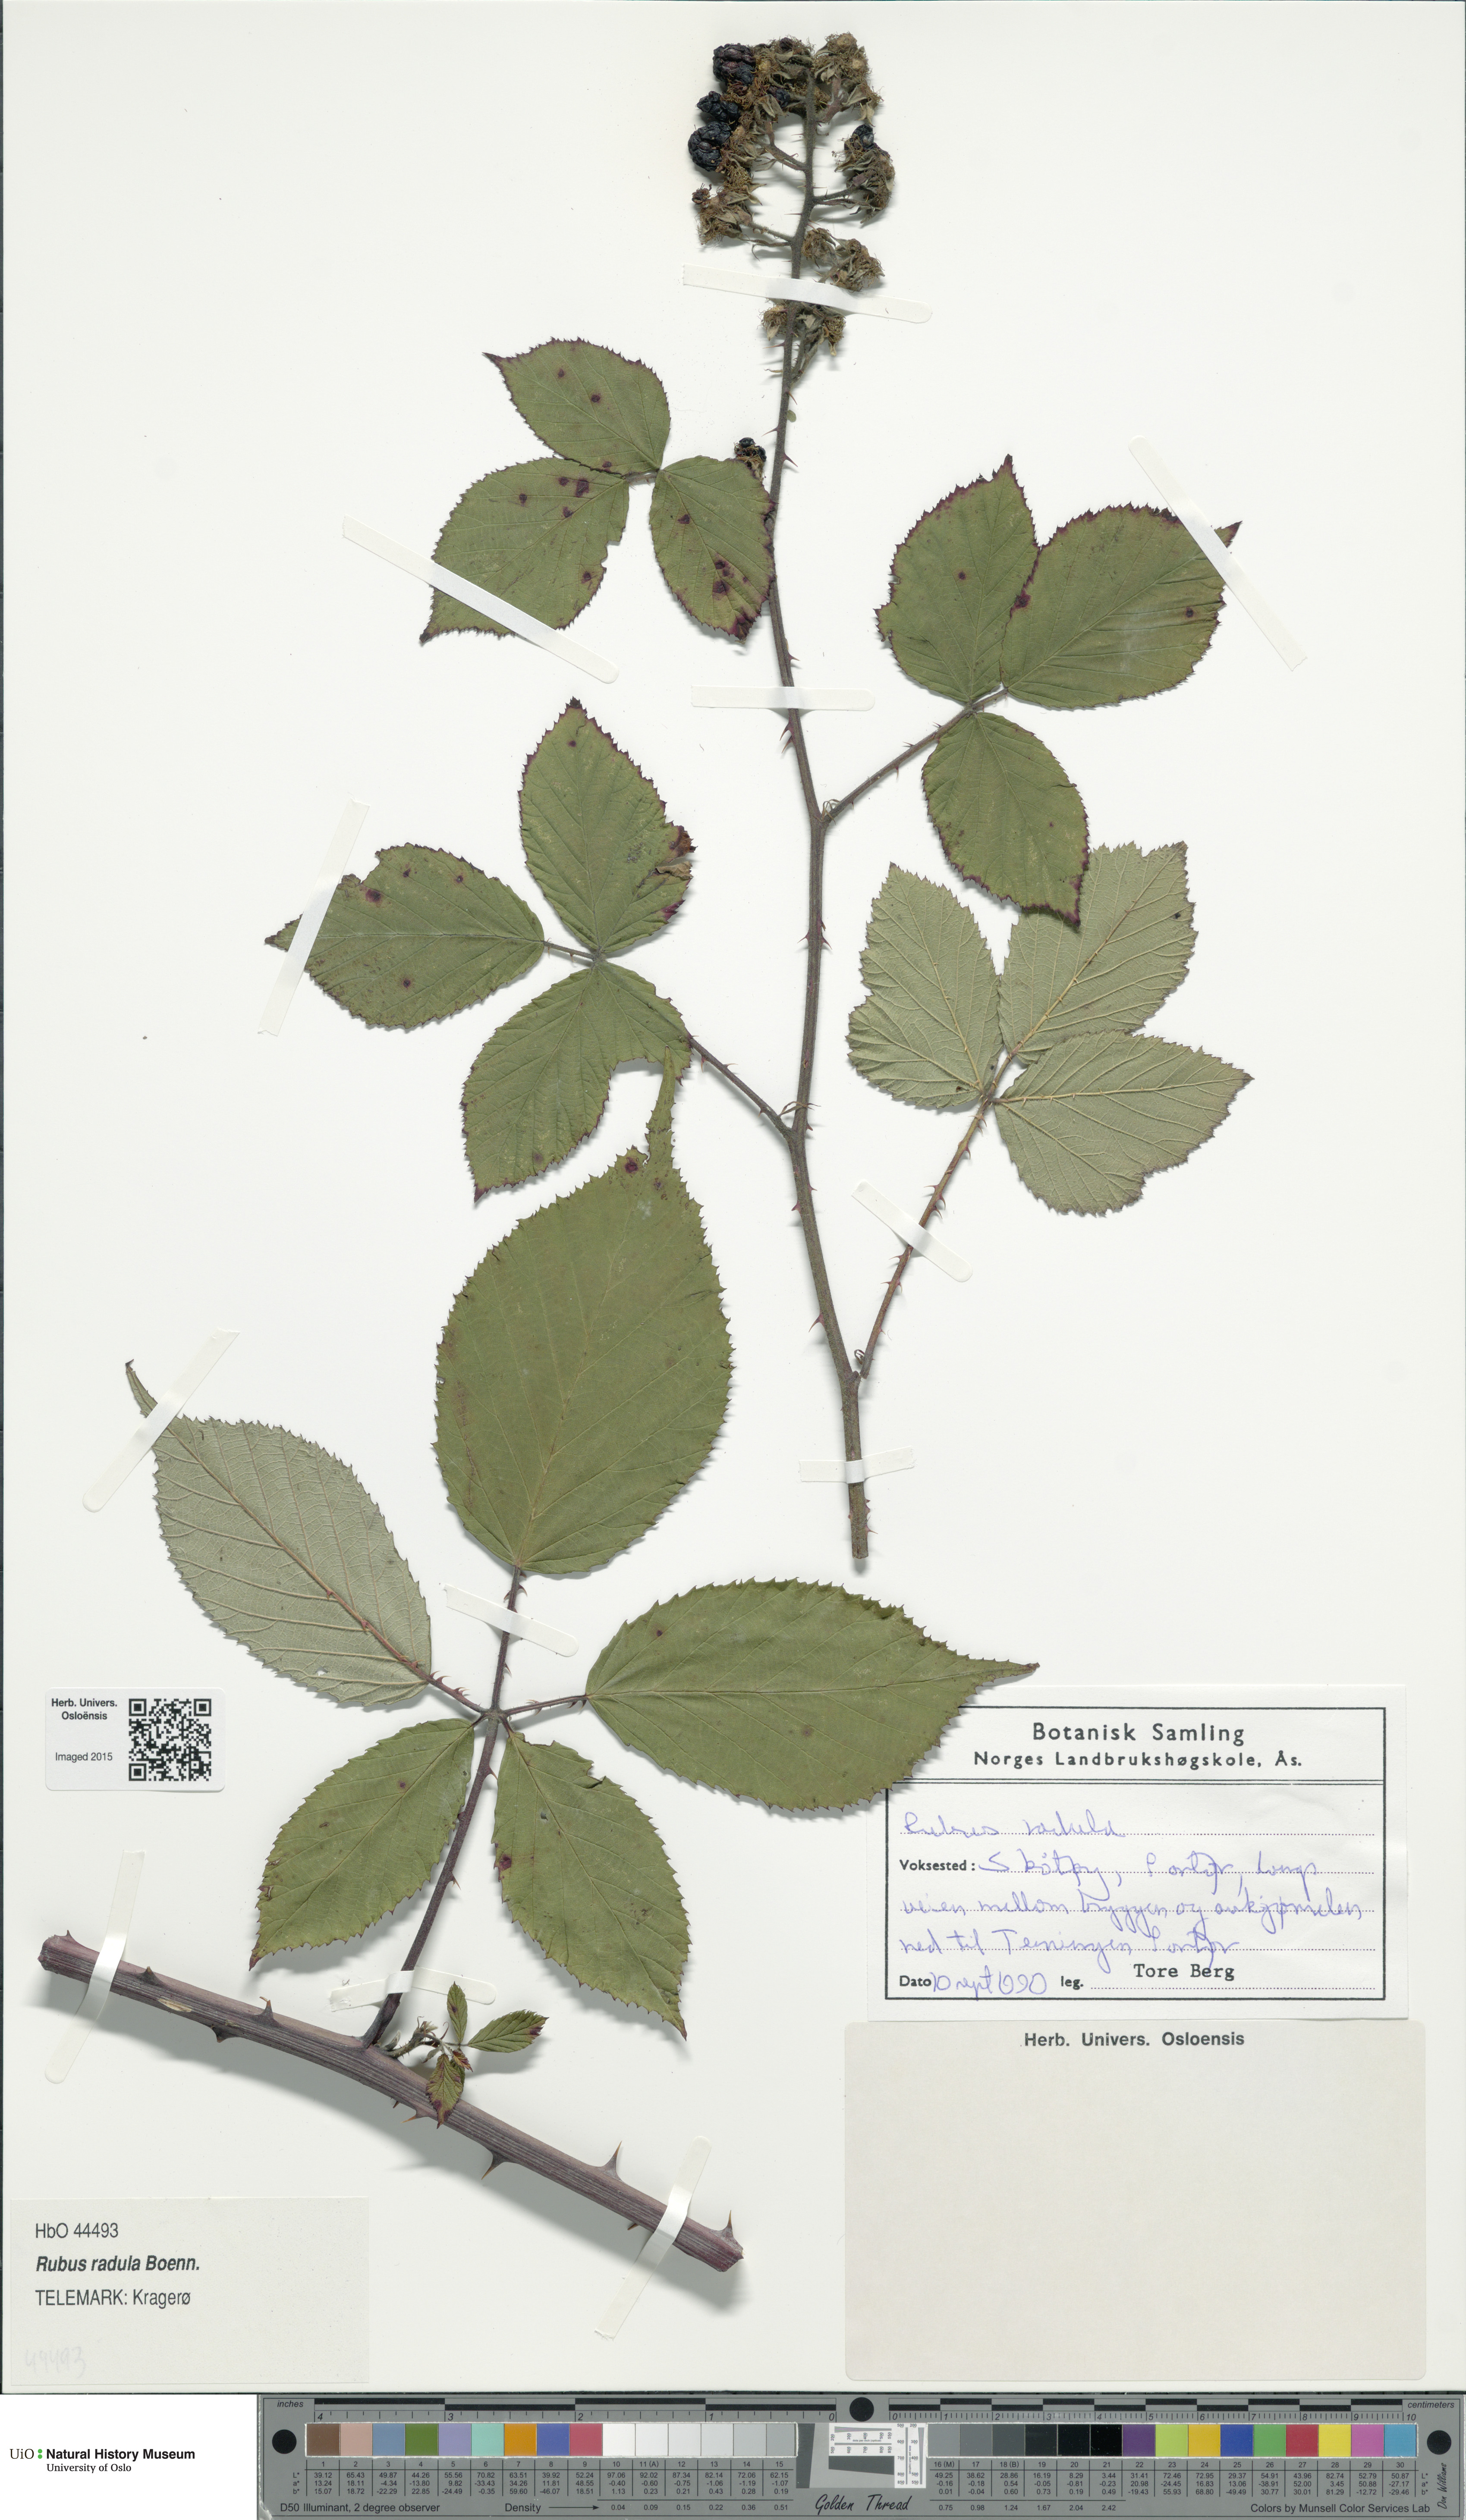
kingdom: Plantae
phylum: Tracheophyta
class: Magnoliopsida
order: Rosales
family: Rosaceae
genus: Rubus
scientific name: Rubus radula
